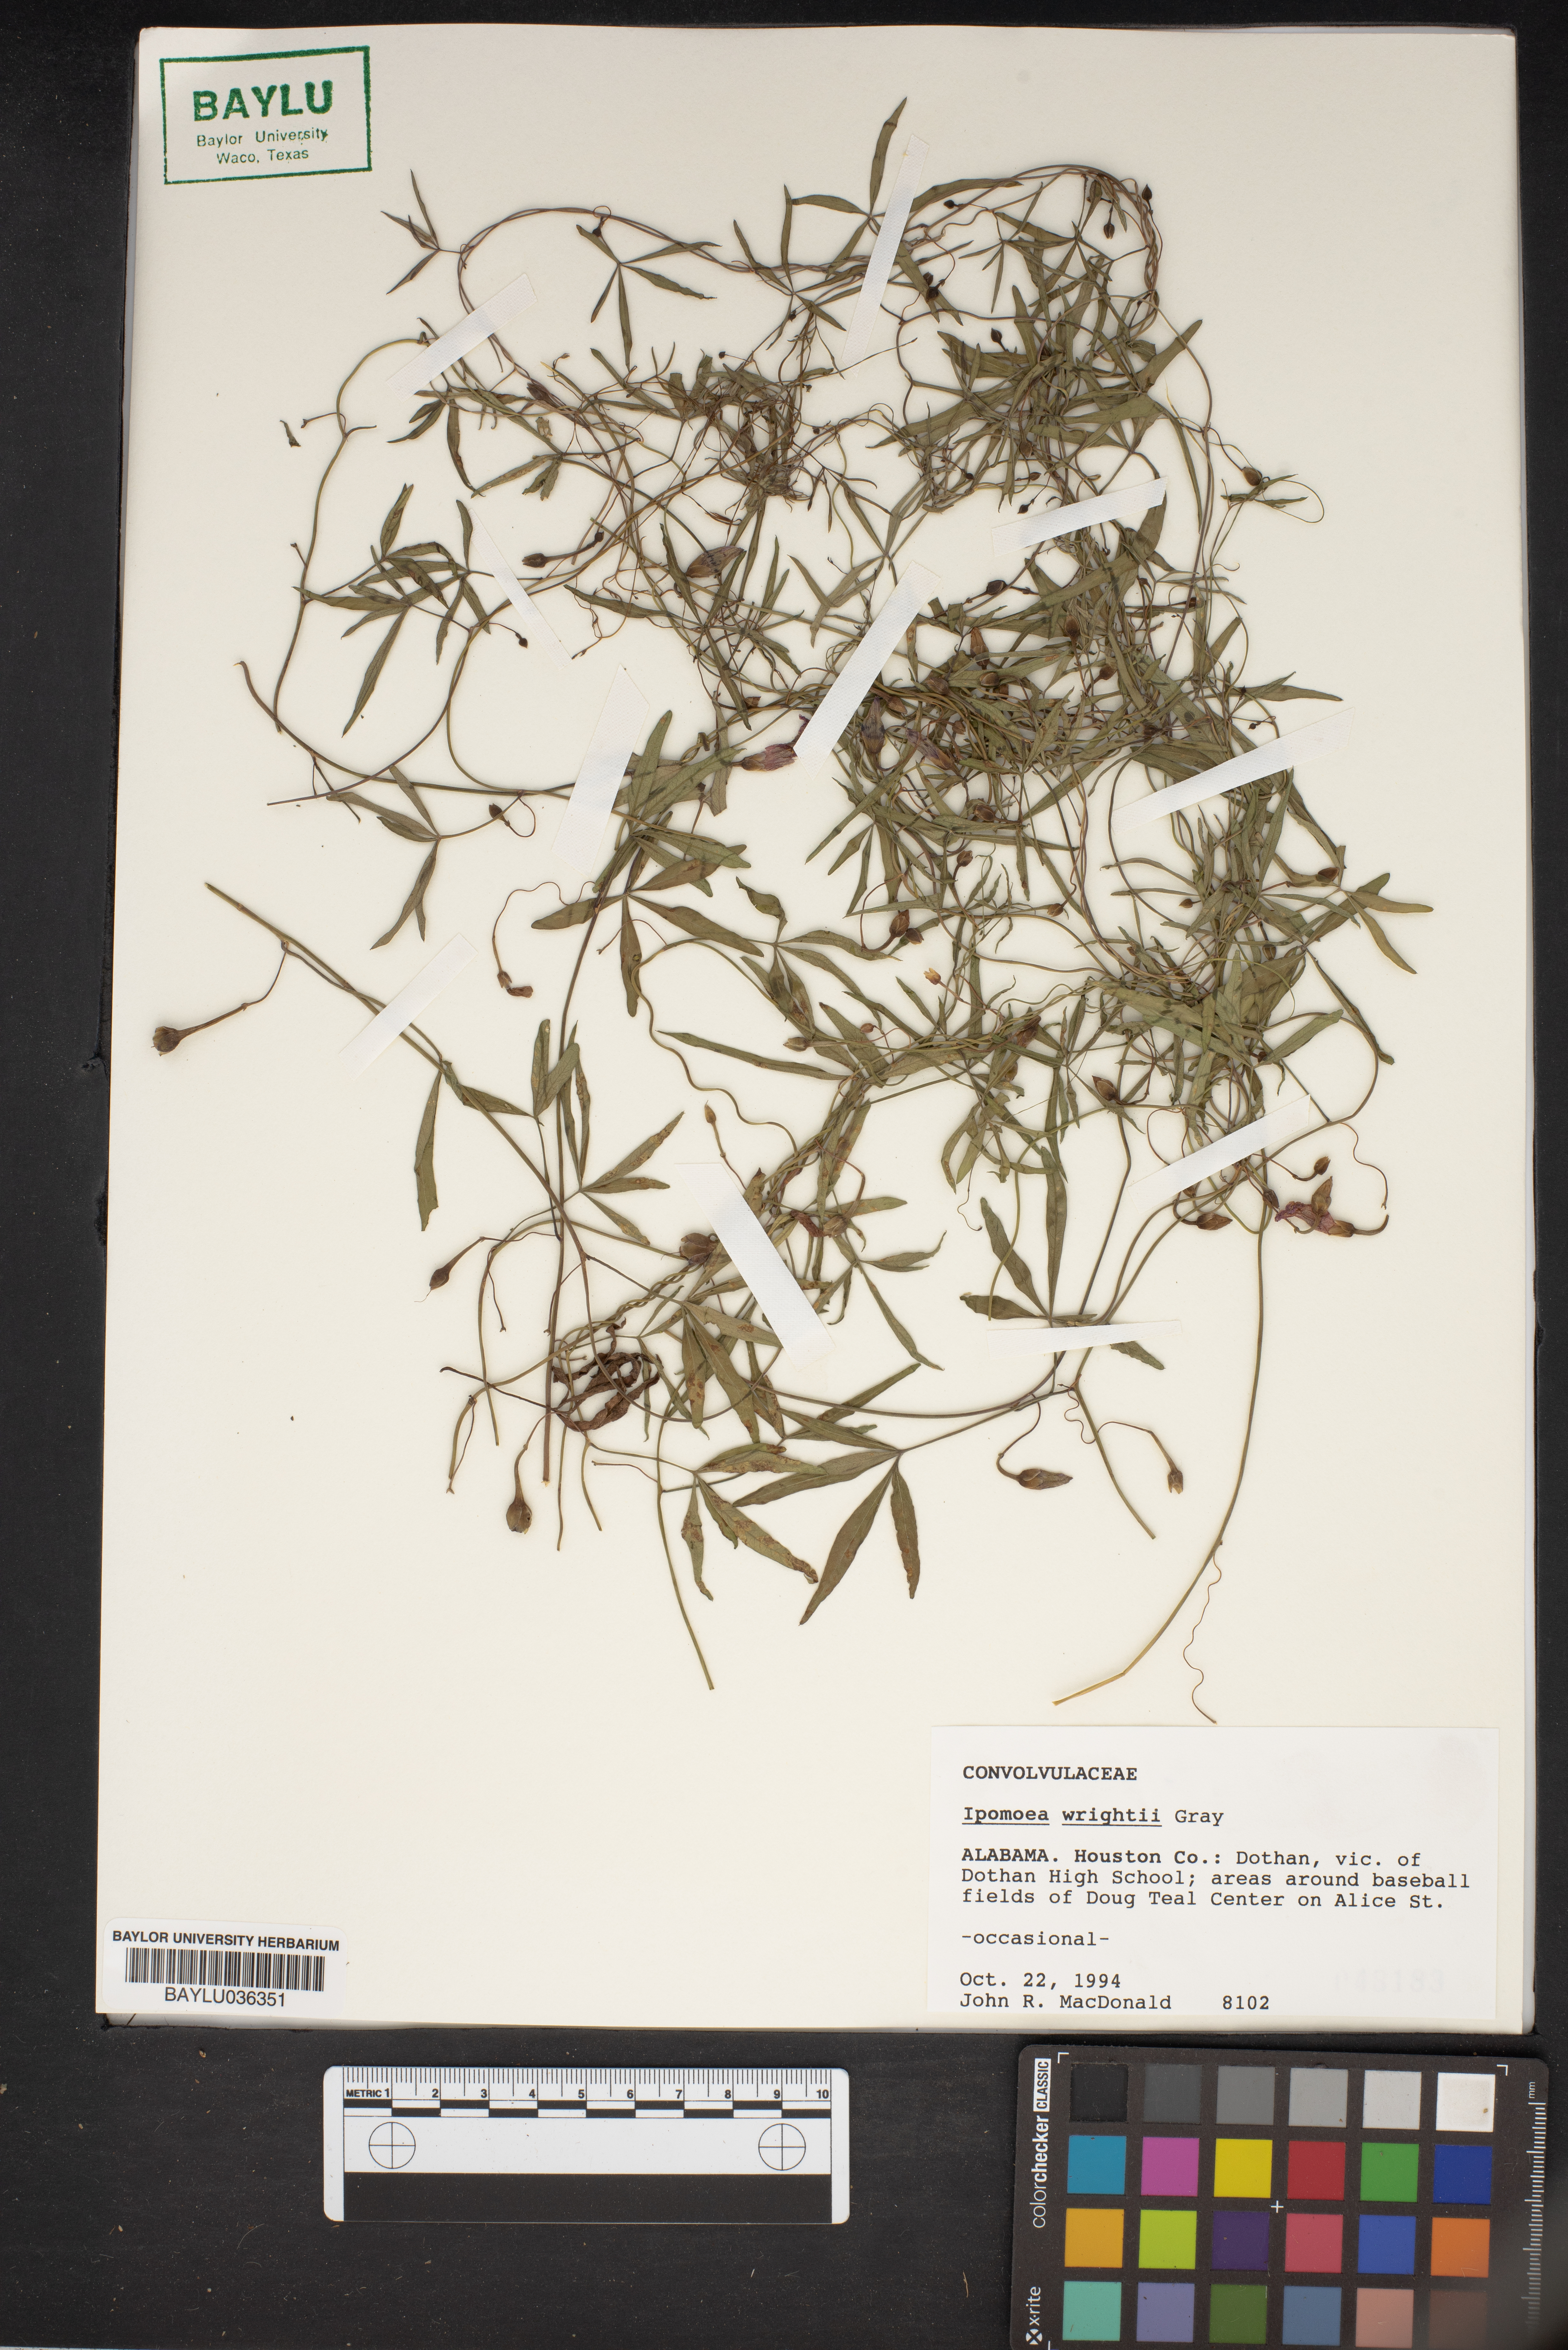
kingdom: Plantae
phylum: Tracheophyta
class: Magnoliopsida
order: Solanales
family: Convolvulaceae
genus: Ipomoea
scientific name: Ipomoea heptaphylla
